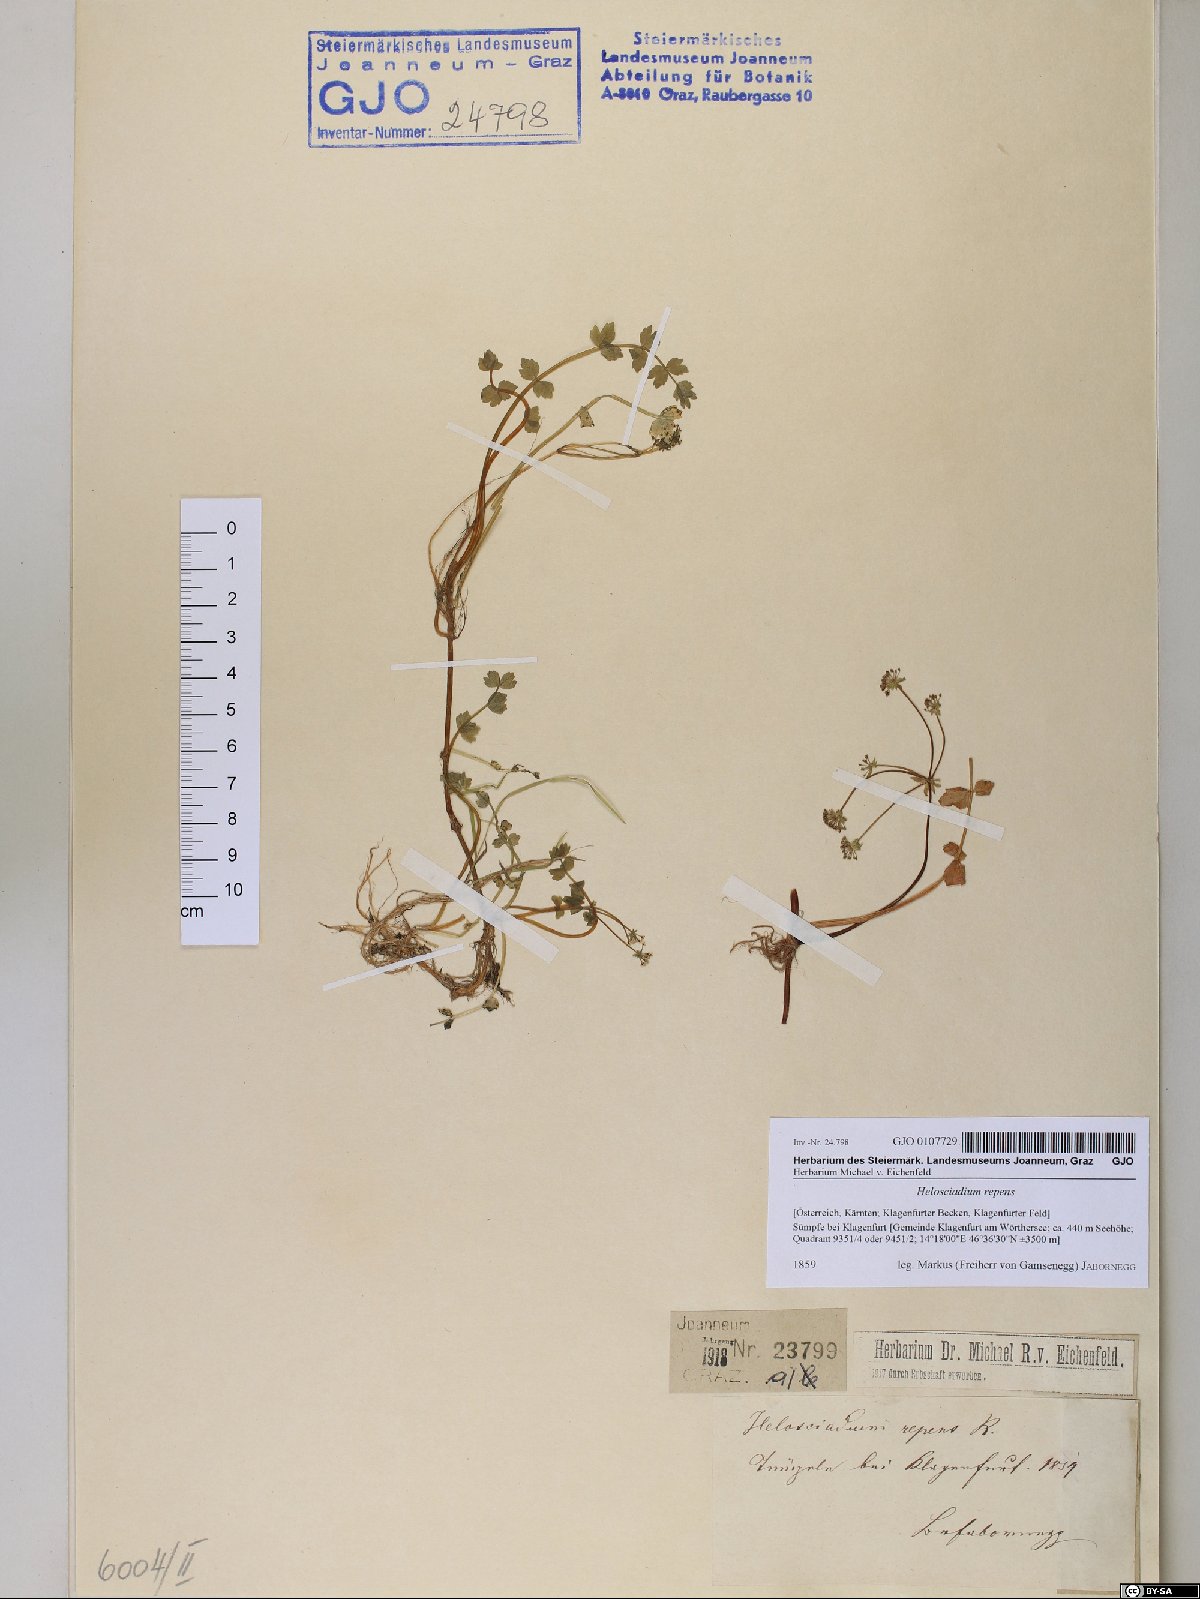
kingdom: Plantae
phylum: Tracheophyta
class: Magnoliopsida
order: Apiales
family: Apiaceae
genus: Helosciadium
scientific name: Helosciadium repens
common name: Creeping marshwort
